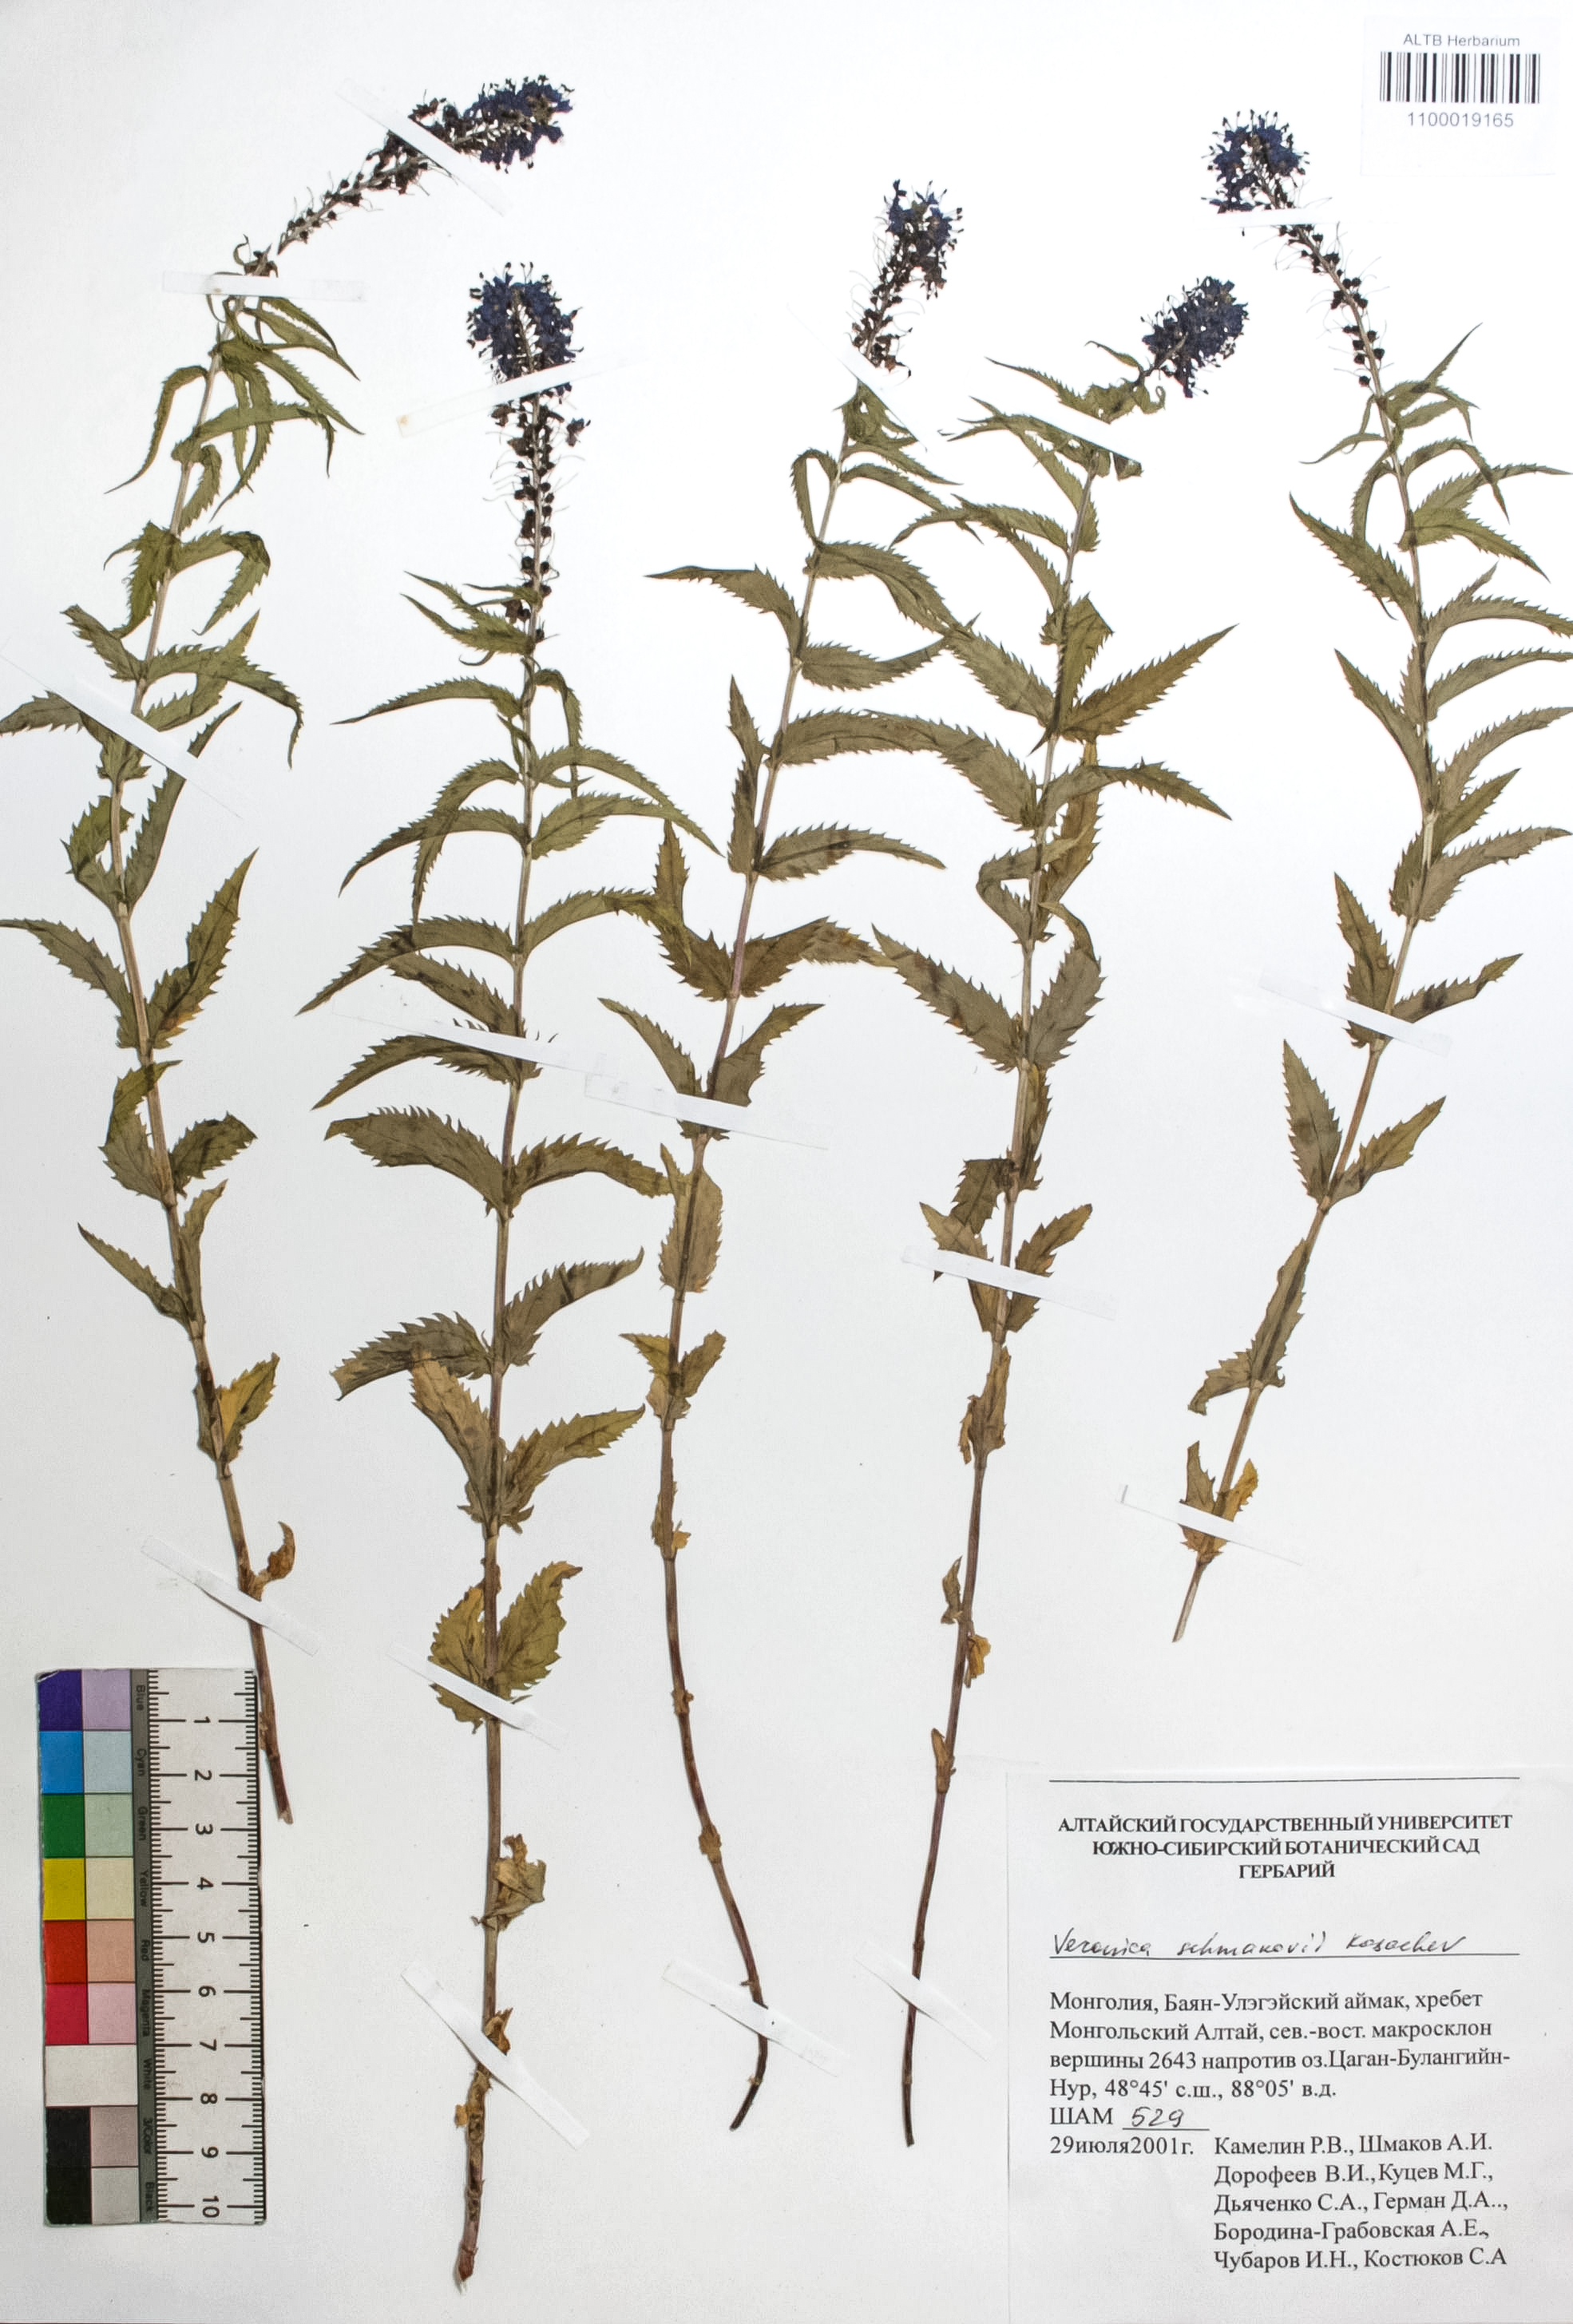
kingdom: Plantae
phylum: Tracheophyta
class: Magnoliopsida
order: Lamiales
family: Plantaginaceae
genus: Veronica
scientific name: Veronica schmakovii
